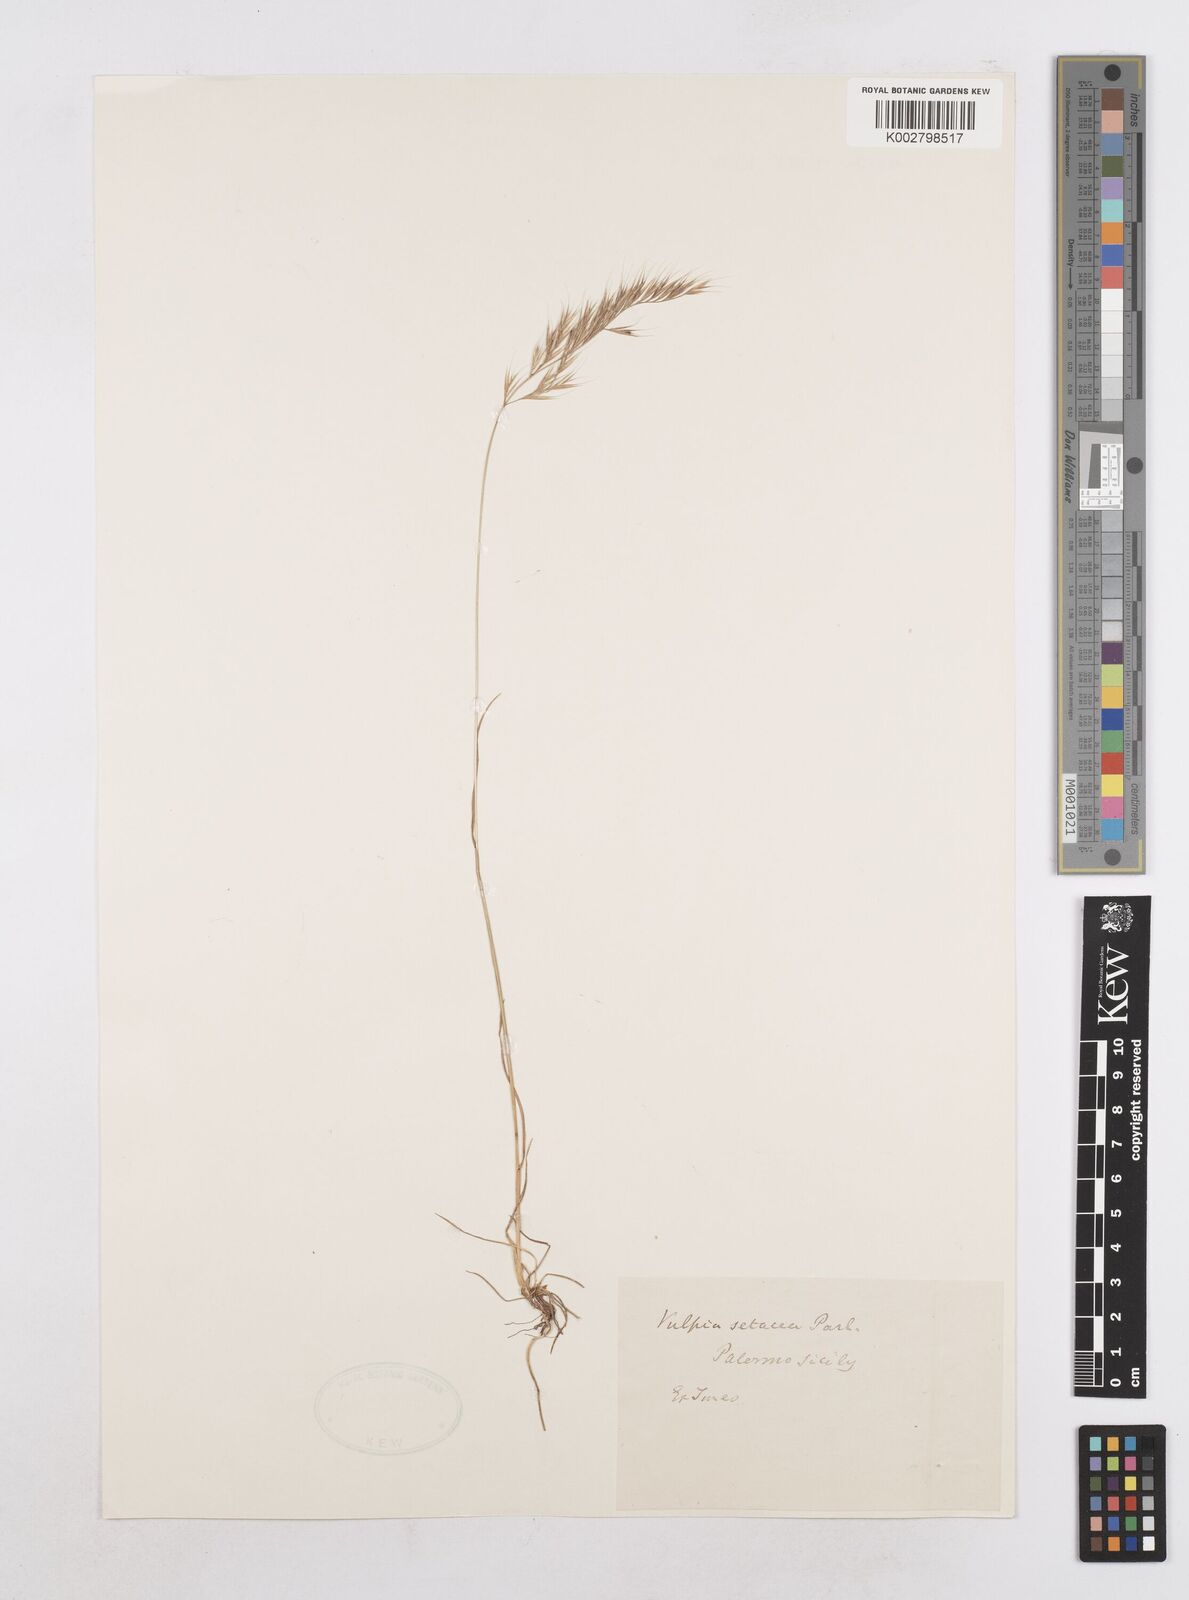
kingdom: Plantae
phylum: Tracheophyta
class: Liliopsida
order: Poales
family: Poaceae
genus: Festuca
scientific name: Festuca sicula
